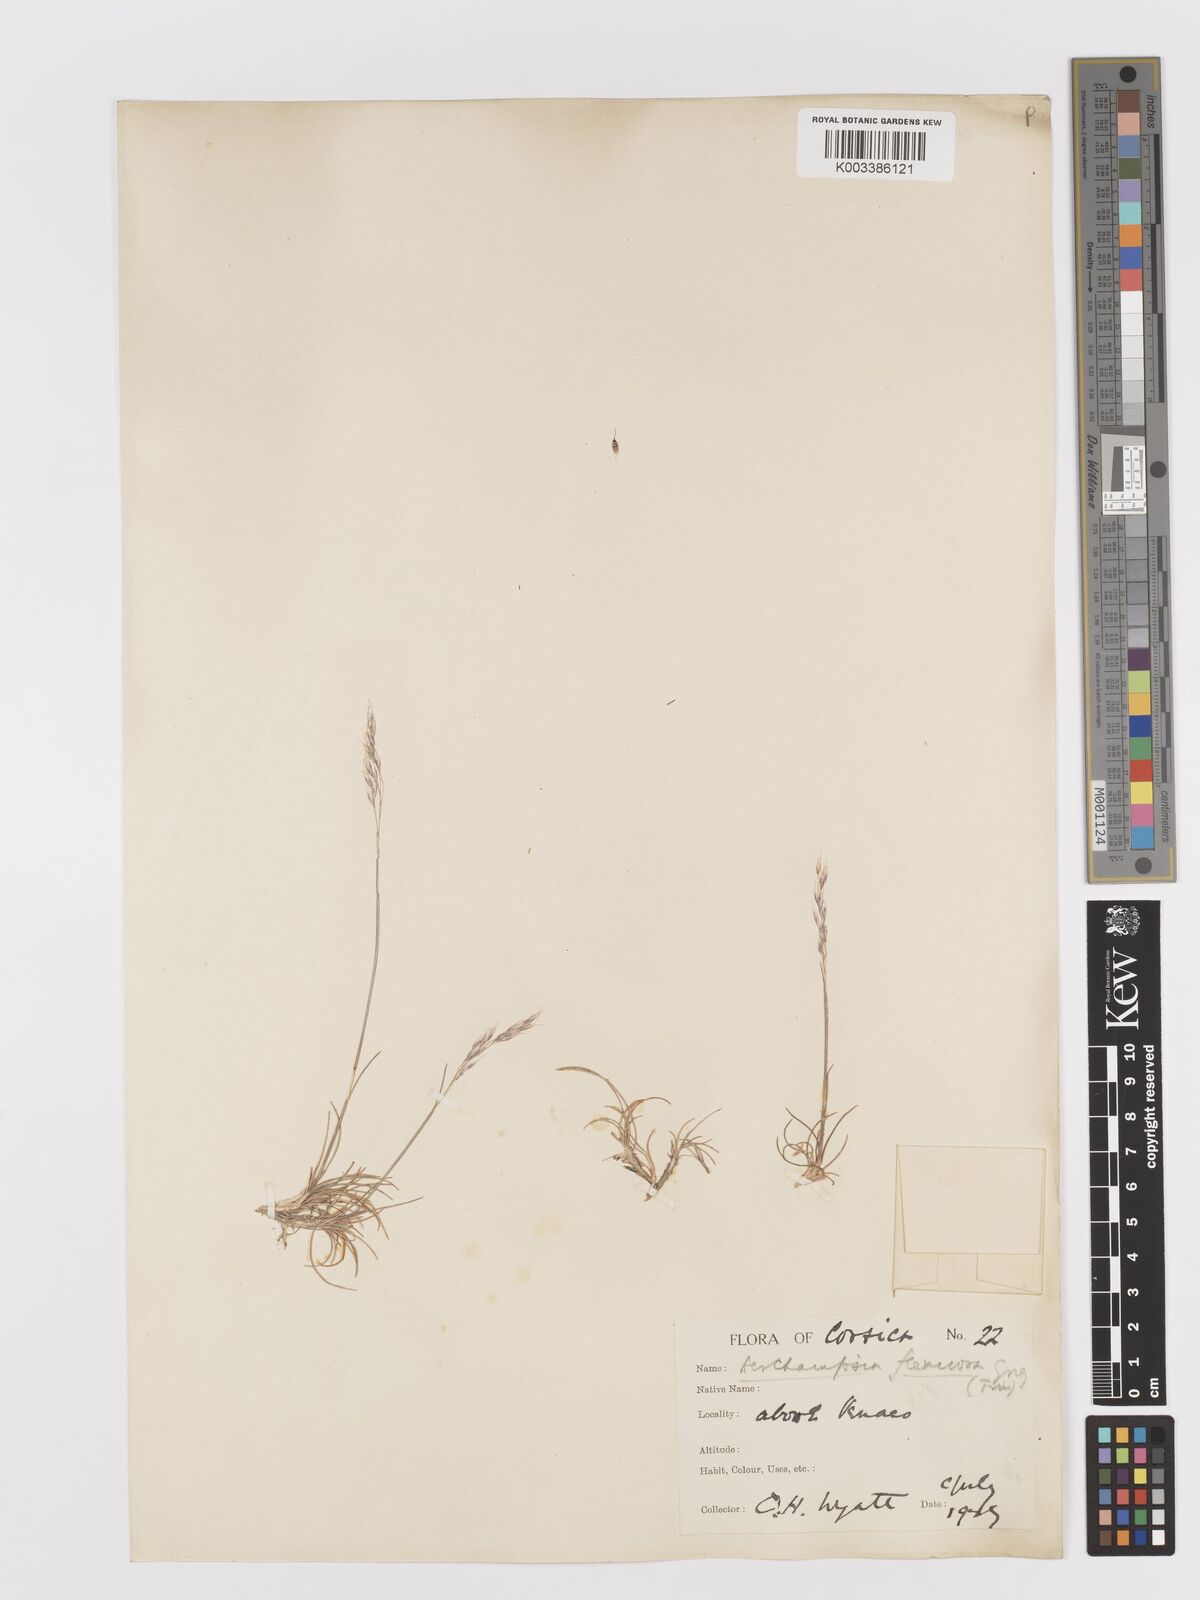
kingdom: Plantae
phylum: Tracheophyta
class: Liliopsida
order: Poales
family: Poaceae
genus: Avenella
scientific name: Avenella flexuosa
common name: Wavy hairgrass
